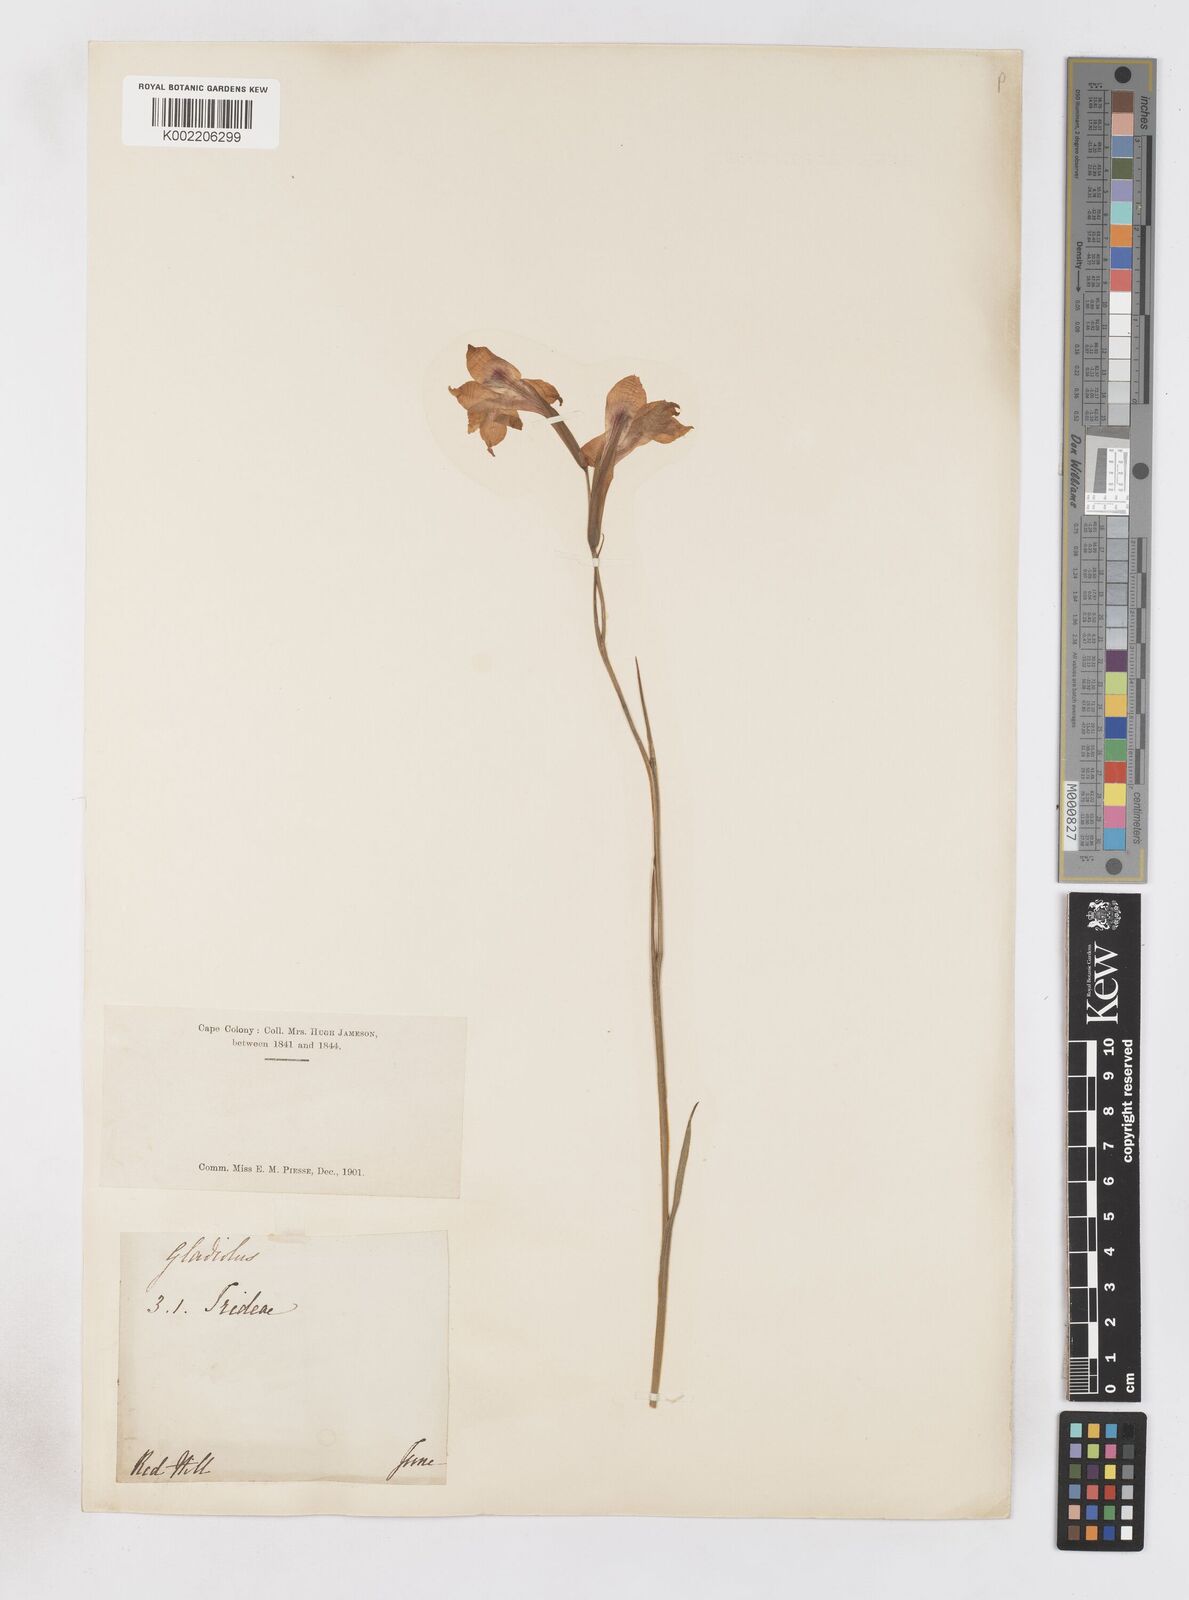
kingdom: Plantae
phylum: Tracheophyta
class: Liliopsida
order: Asparagales
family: Iridaceae
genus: Gladiolus
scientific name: Gladiolus maculatus
